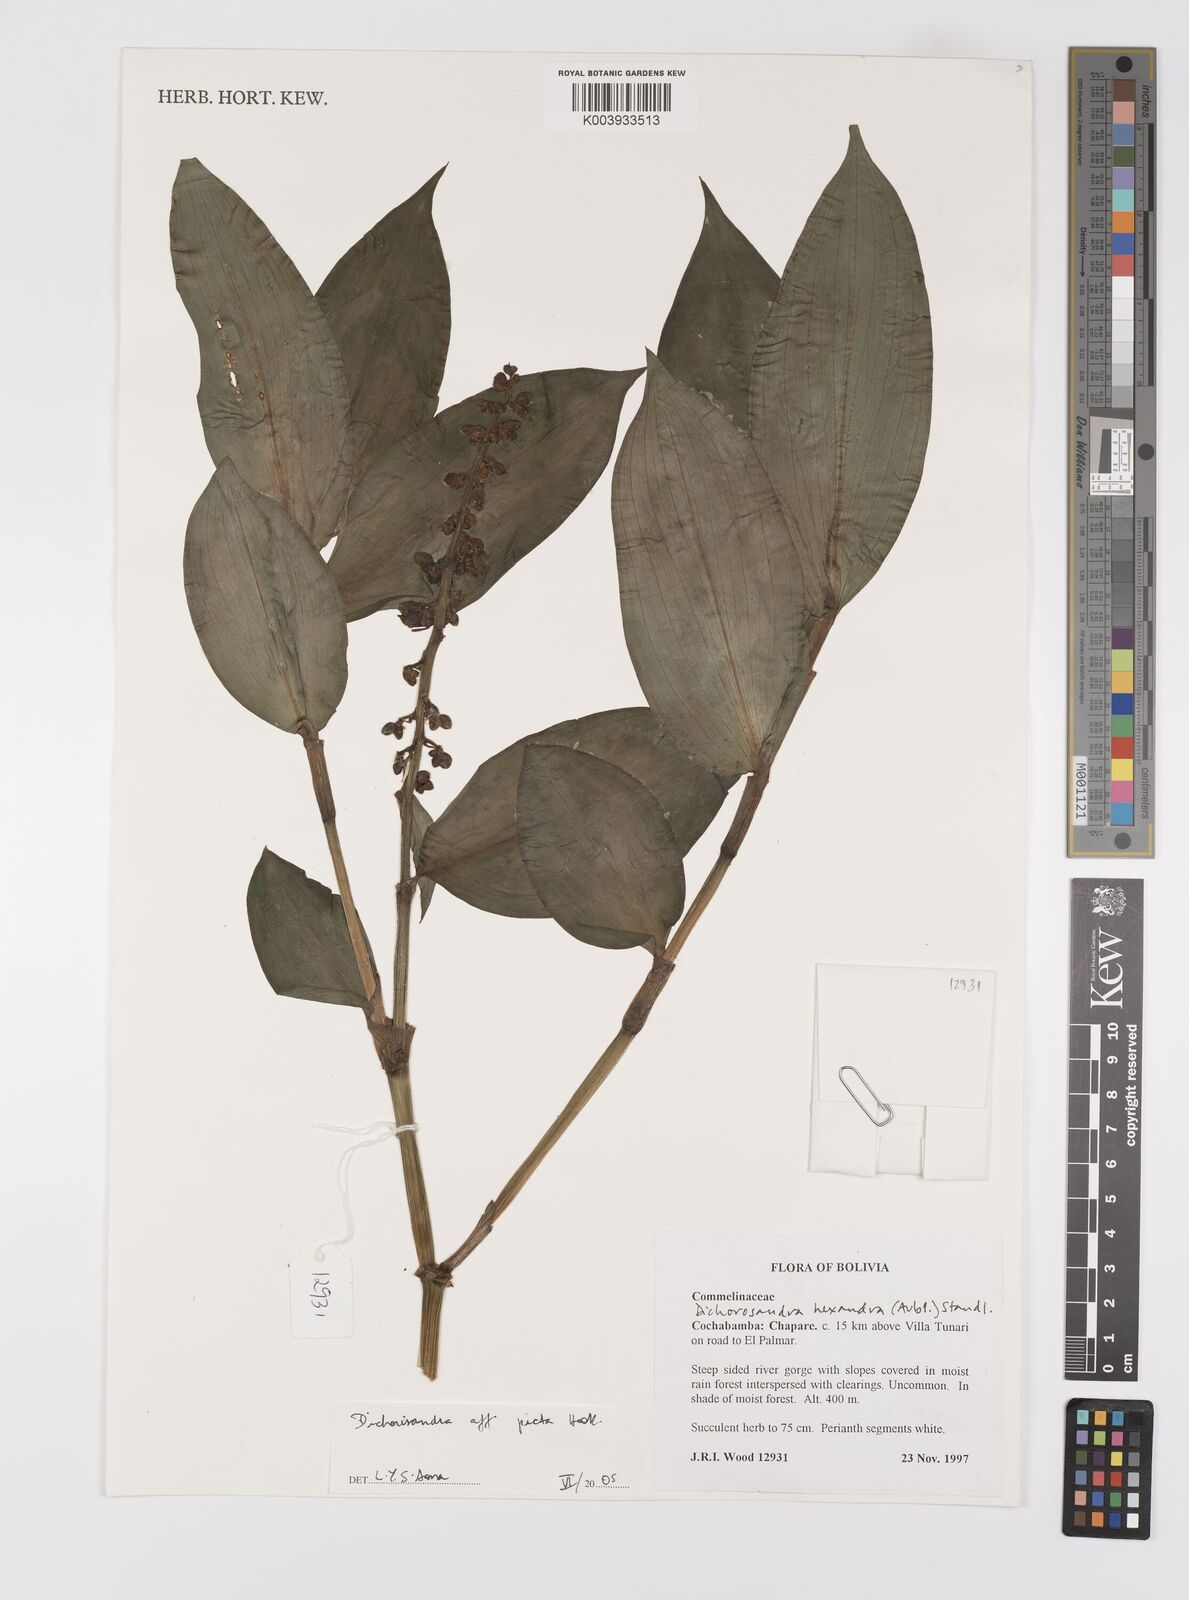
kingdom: Plantae
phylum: Tracheophyta
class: Liliopsida
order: Commelinales
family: Commelinaceae
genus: Dichorisandra
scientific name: Dichorisandra picta
